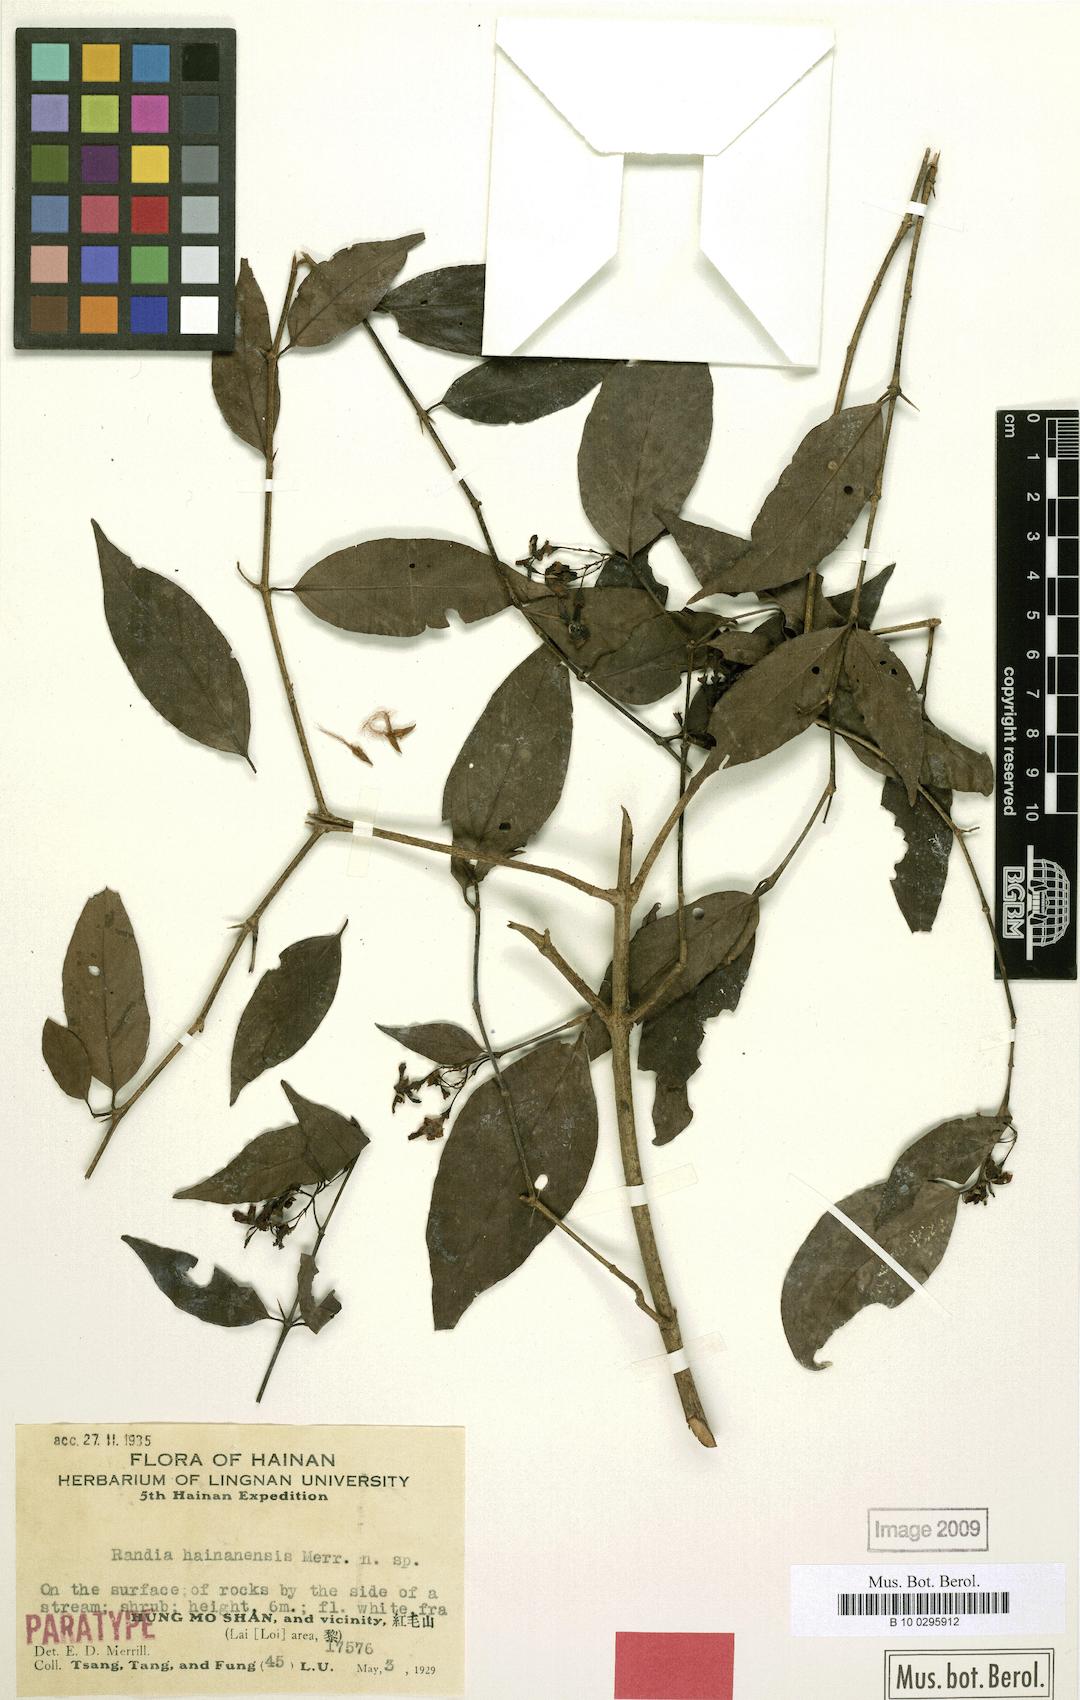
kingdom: Plantae
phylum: Tracheophyta
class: Magnoliopsida
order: Gentianales
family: Rubiaceae
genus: Benkara
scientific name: Benkara hainanensis
